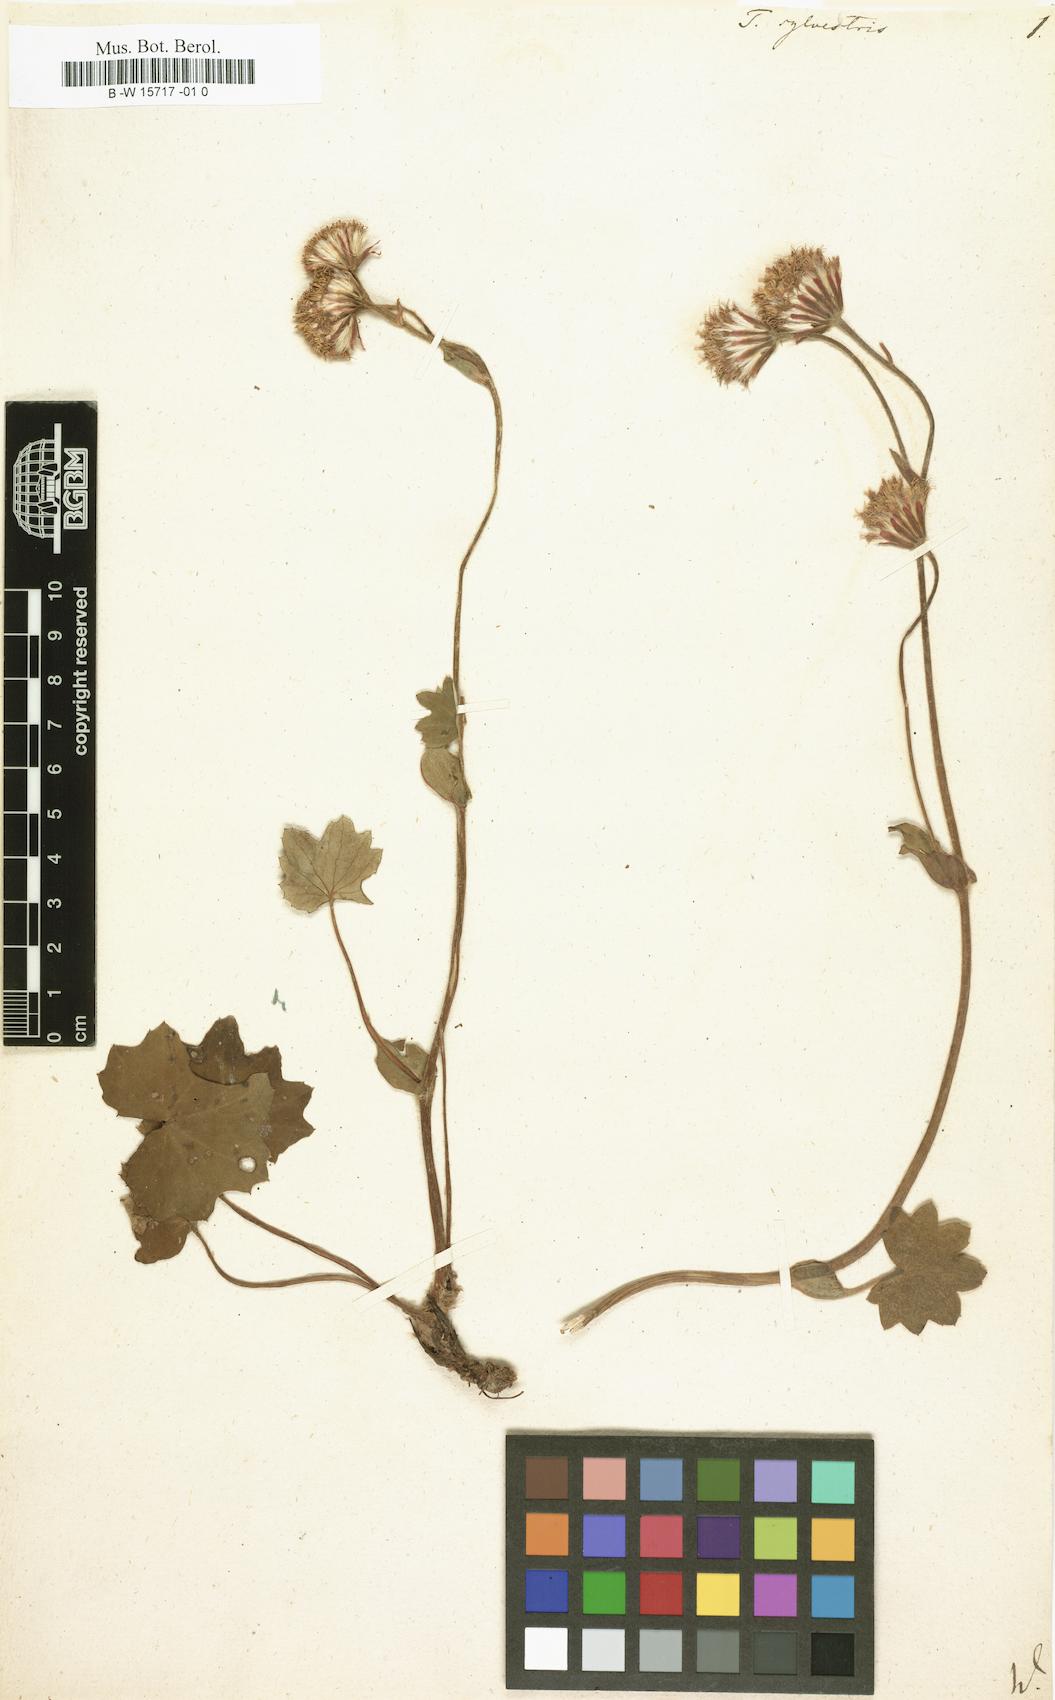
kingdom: Plantae
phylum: Tracheophyta
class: Magnoliopsida
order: Asterales
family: Asteraceae
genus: Homogyne
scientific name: Homogyne sylvestris
